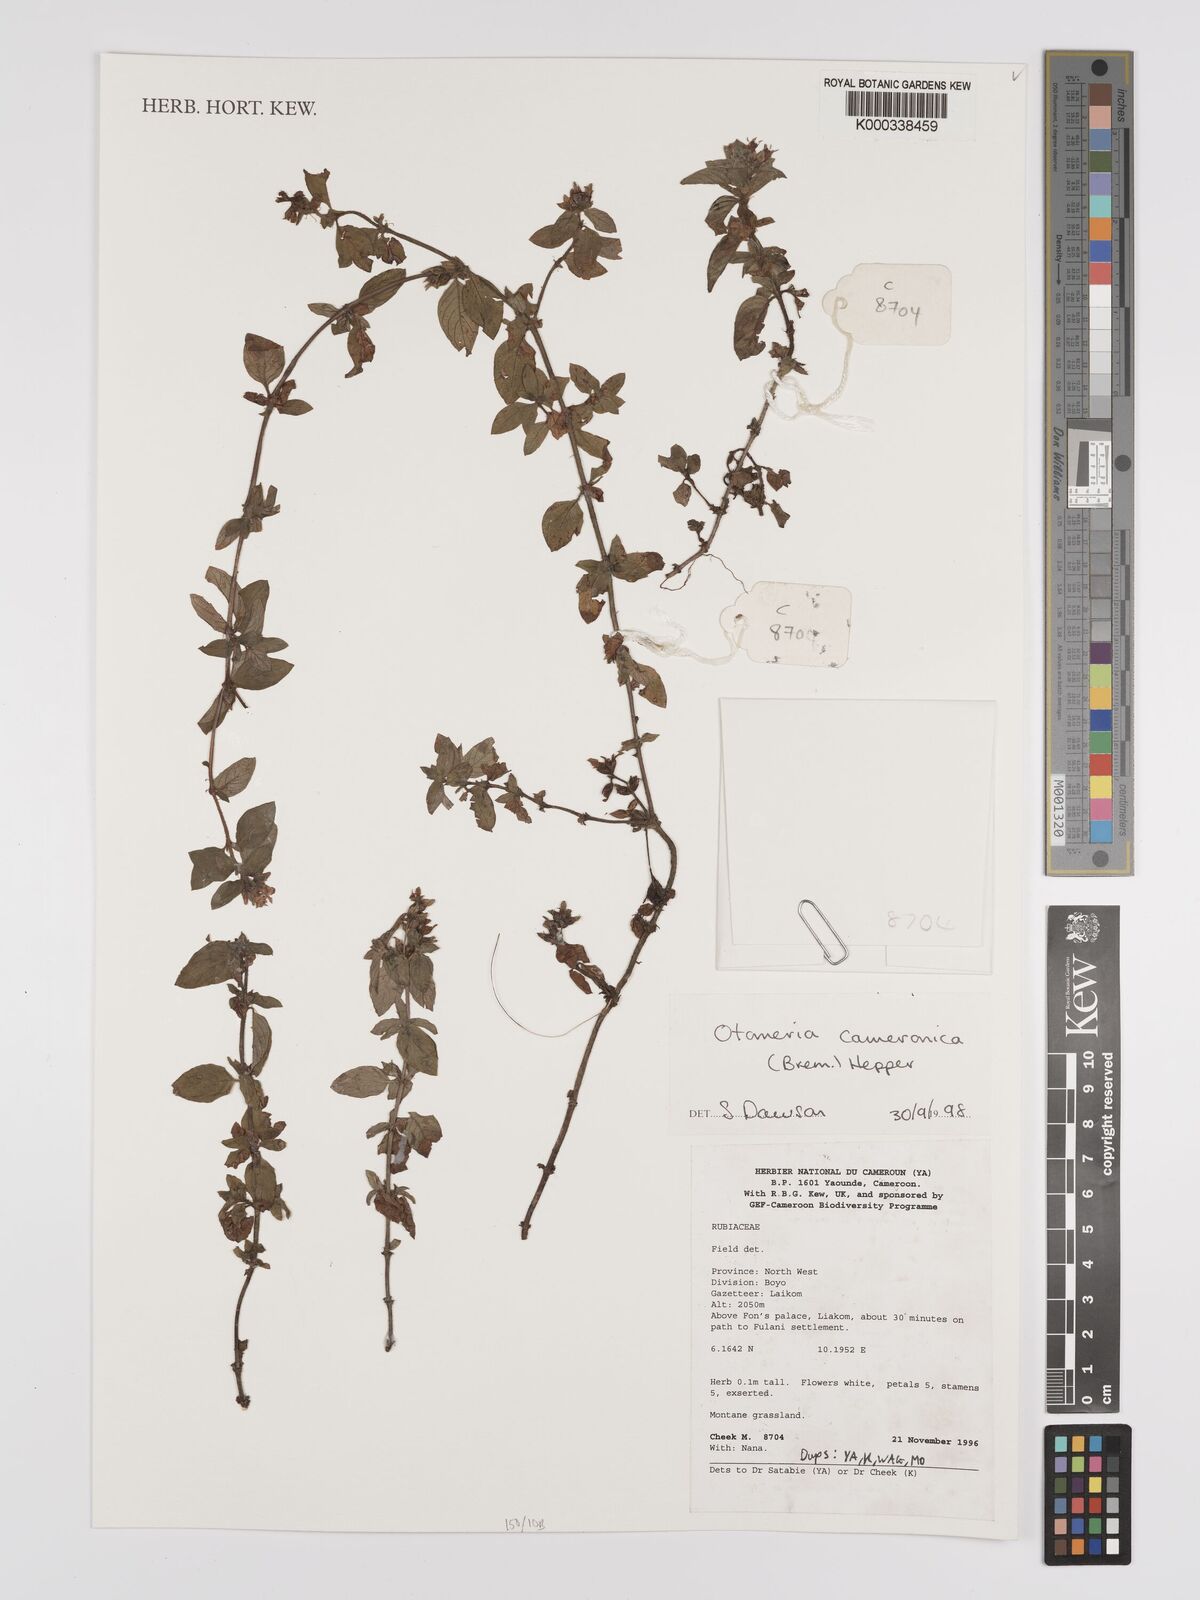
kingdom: Plantae
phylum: Tracheophyta
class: Magnoliopsida
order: Gentianales
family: Rubiaceae
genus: Otomeria
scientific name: Otomeria cameronica
